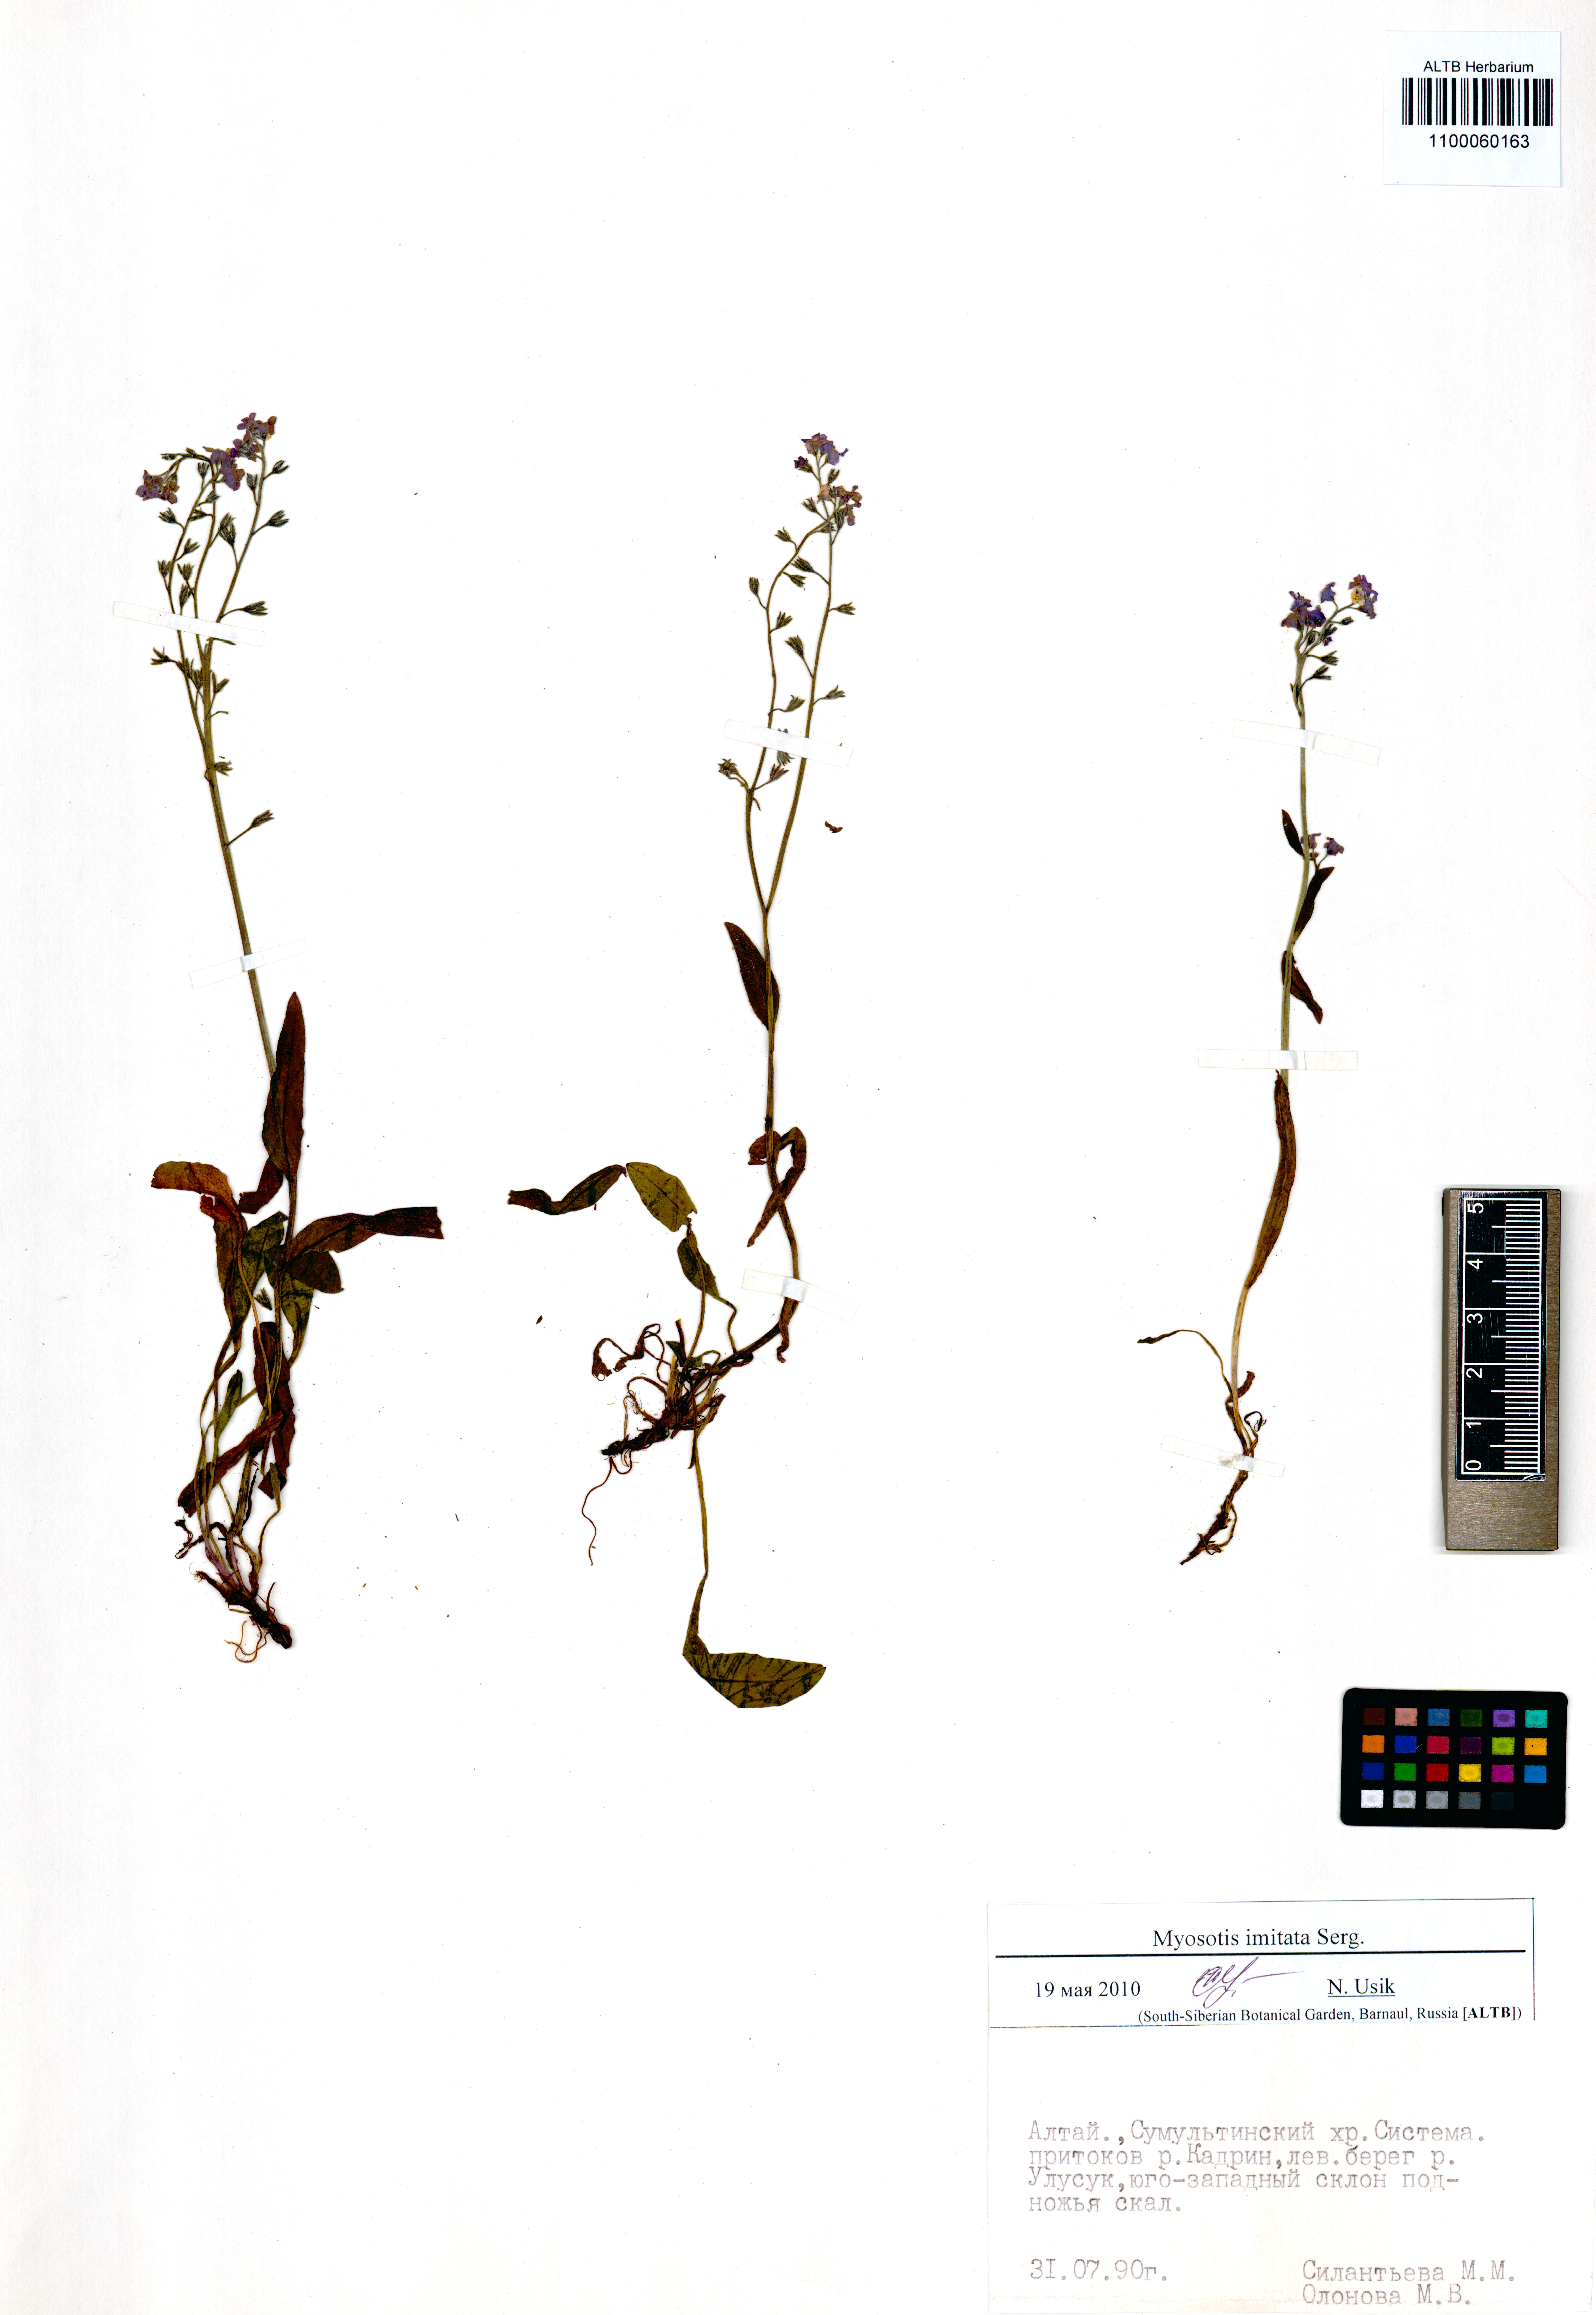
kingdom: Plantae
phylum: Tracheophyta
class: Magnoliopsida
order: Boraginales
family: Boraginaceae
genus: Myosotis
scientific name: Myosotis imitata
